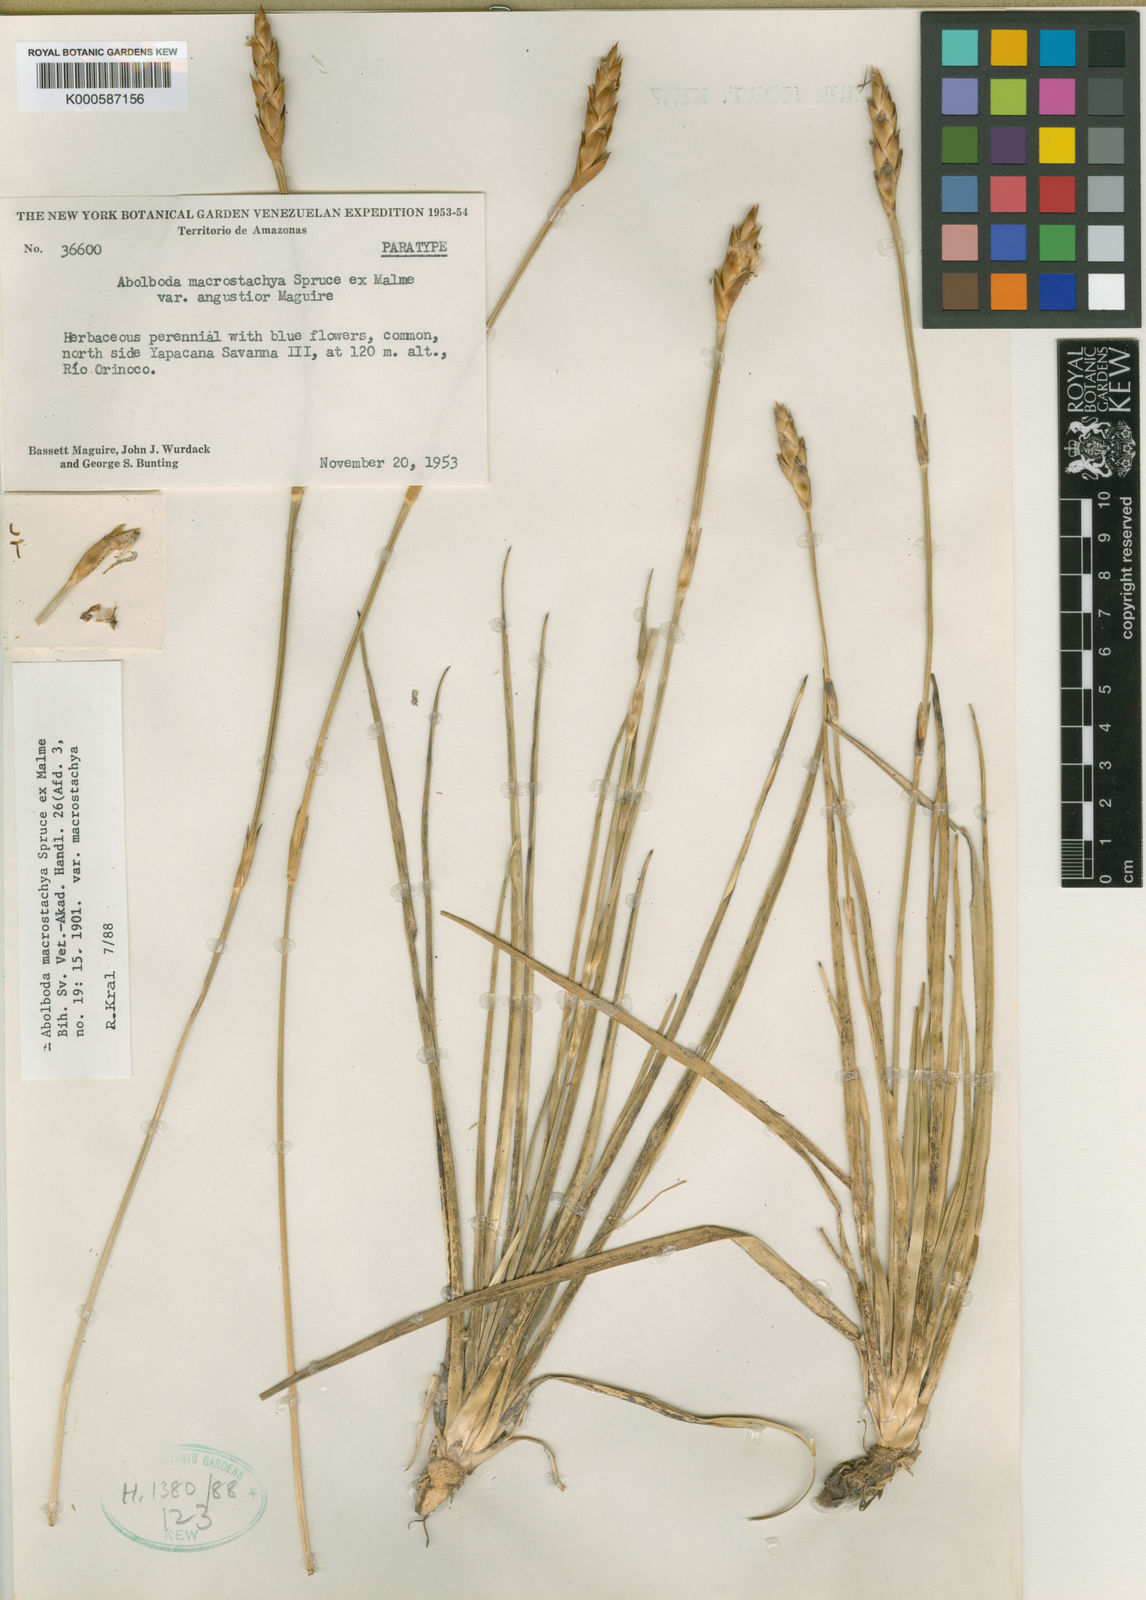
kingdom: Plantae
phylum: Tracheophyta
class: Liliopsida
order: Poales
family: Xyridaceae
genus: Abolboda
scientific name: Abolboda macrostachya
